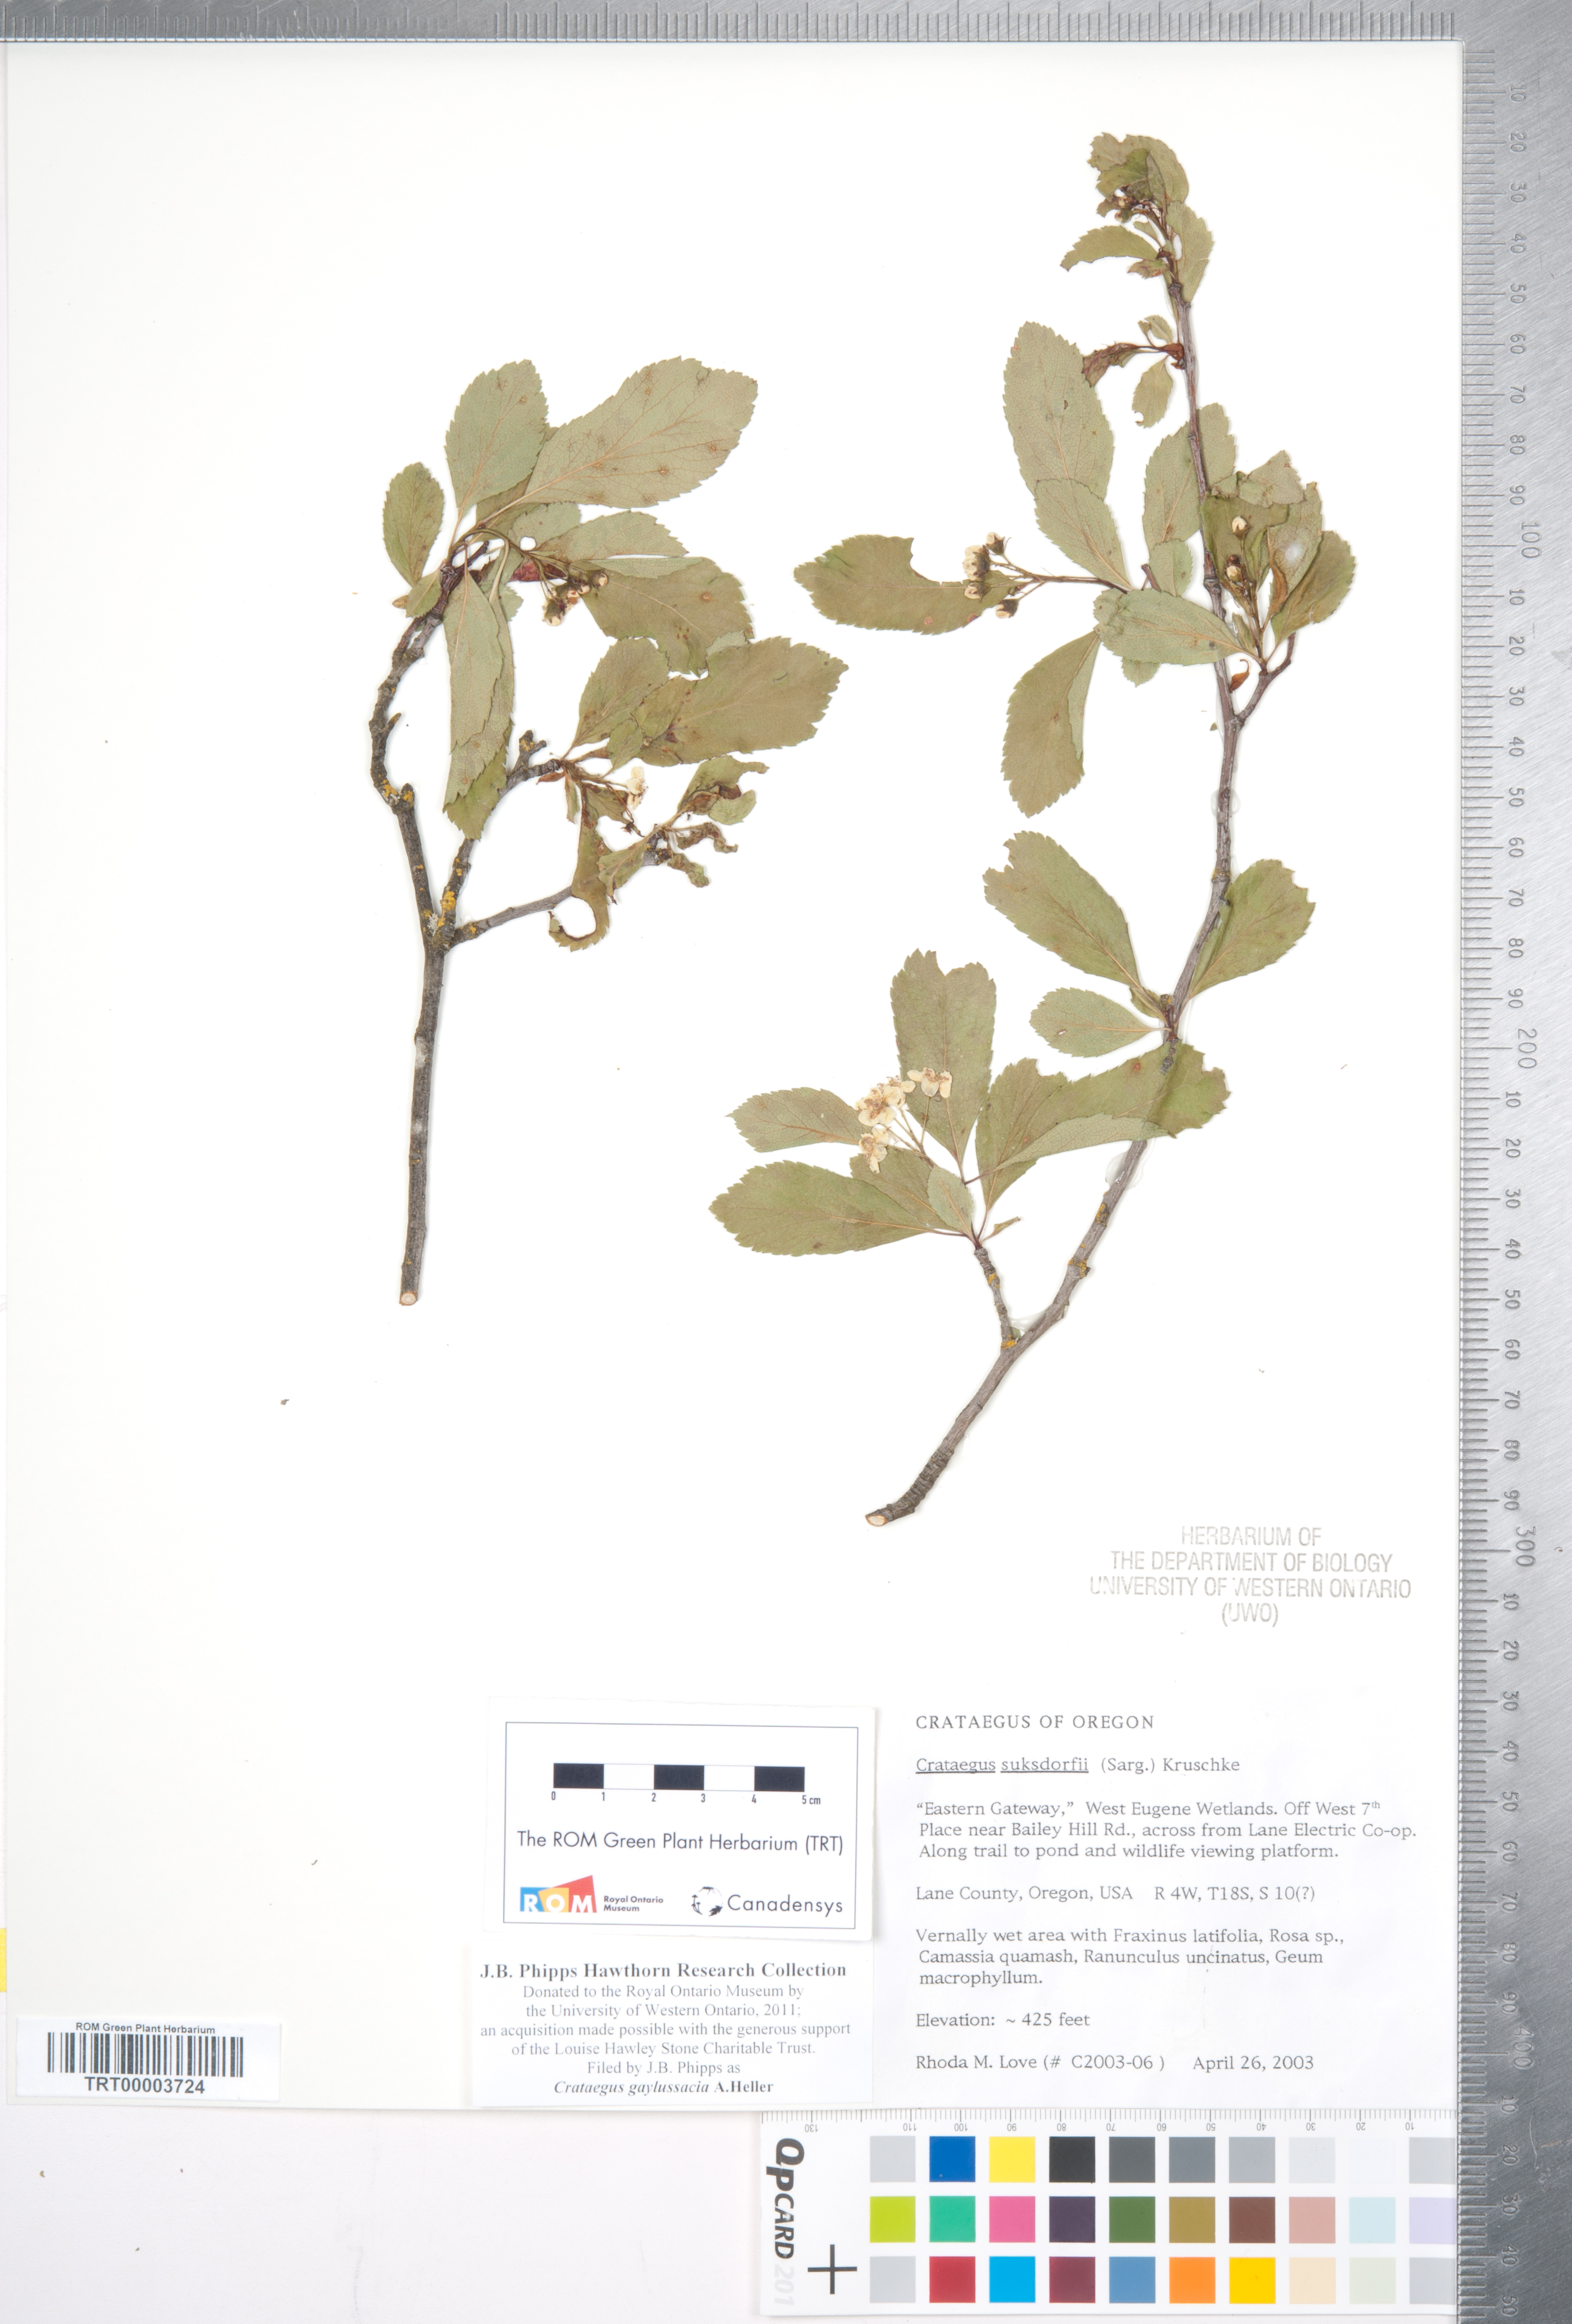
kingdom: Plantae
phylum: Tracheophyta
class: Magnoliopsida
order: Rosales
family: Rosaceae
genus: Crataegus
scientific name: Crataegus gaylussacia
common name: Huckleberry hawthorn
